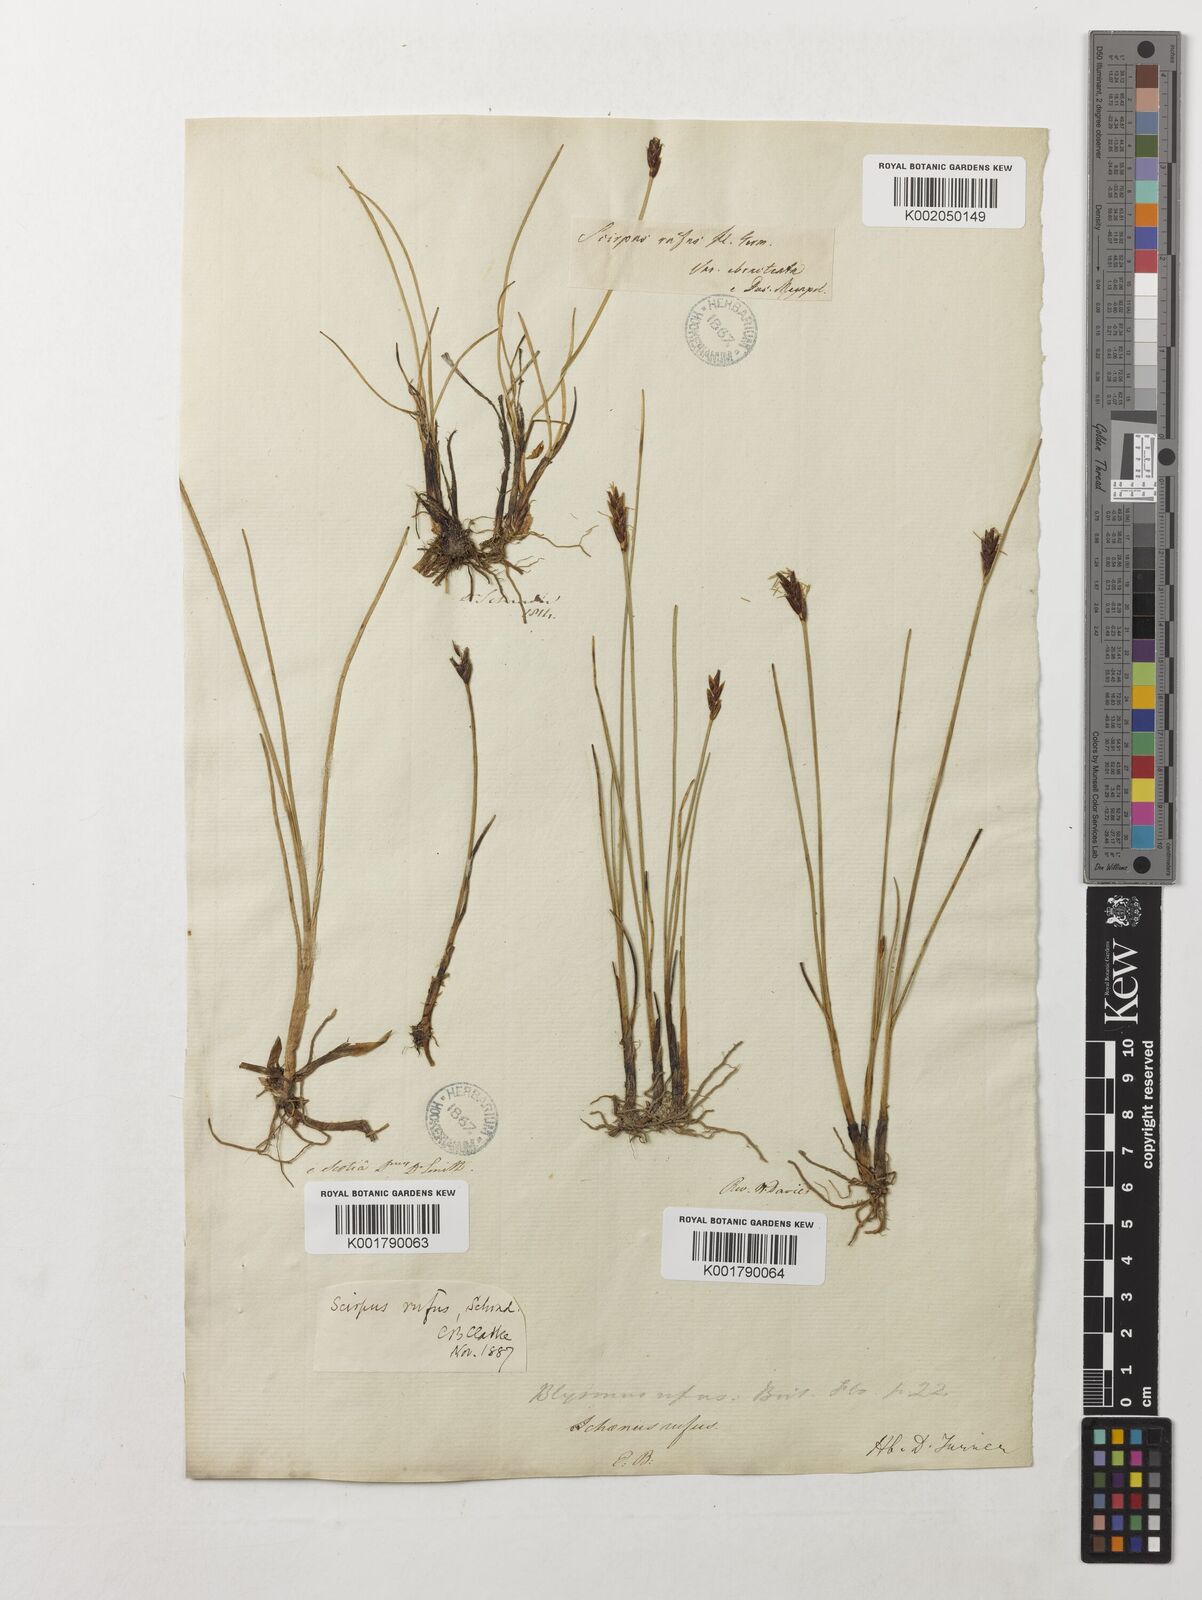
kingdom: Plantae
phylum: Tracheophyta
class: Liliopsida
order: Poales
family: Cyperaceae
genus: Blysmus
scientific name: Blysmus rufus
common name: Saltmarsh flat-sedge
